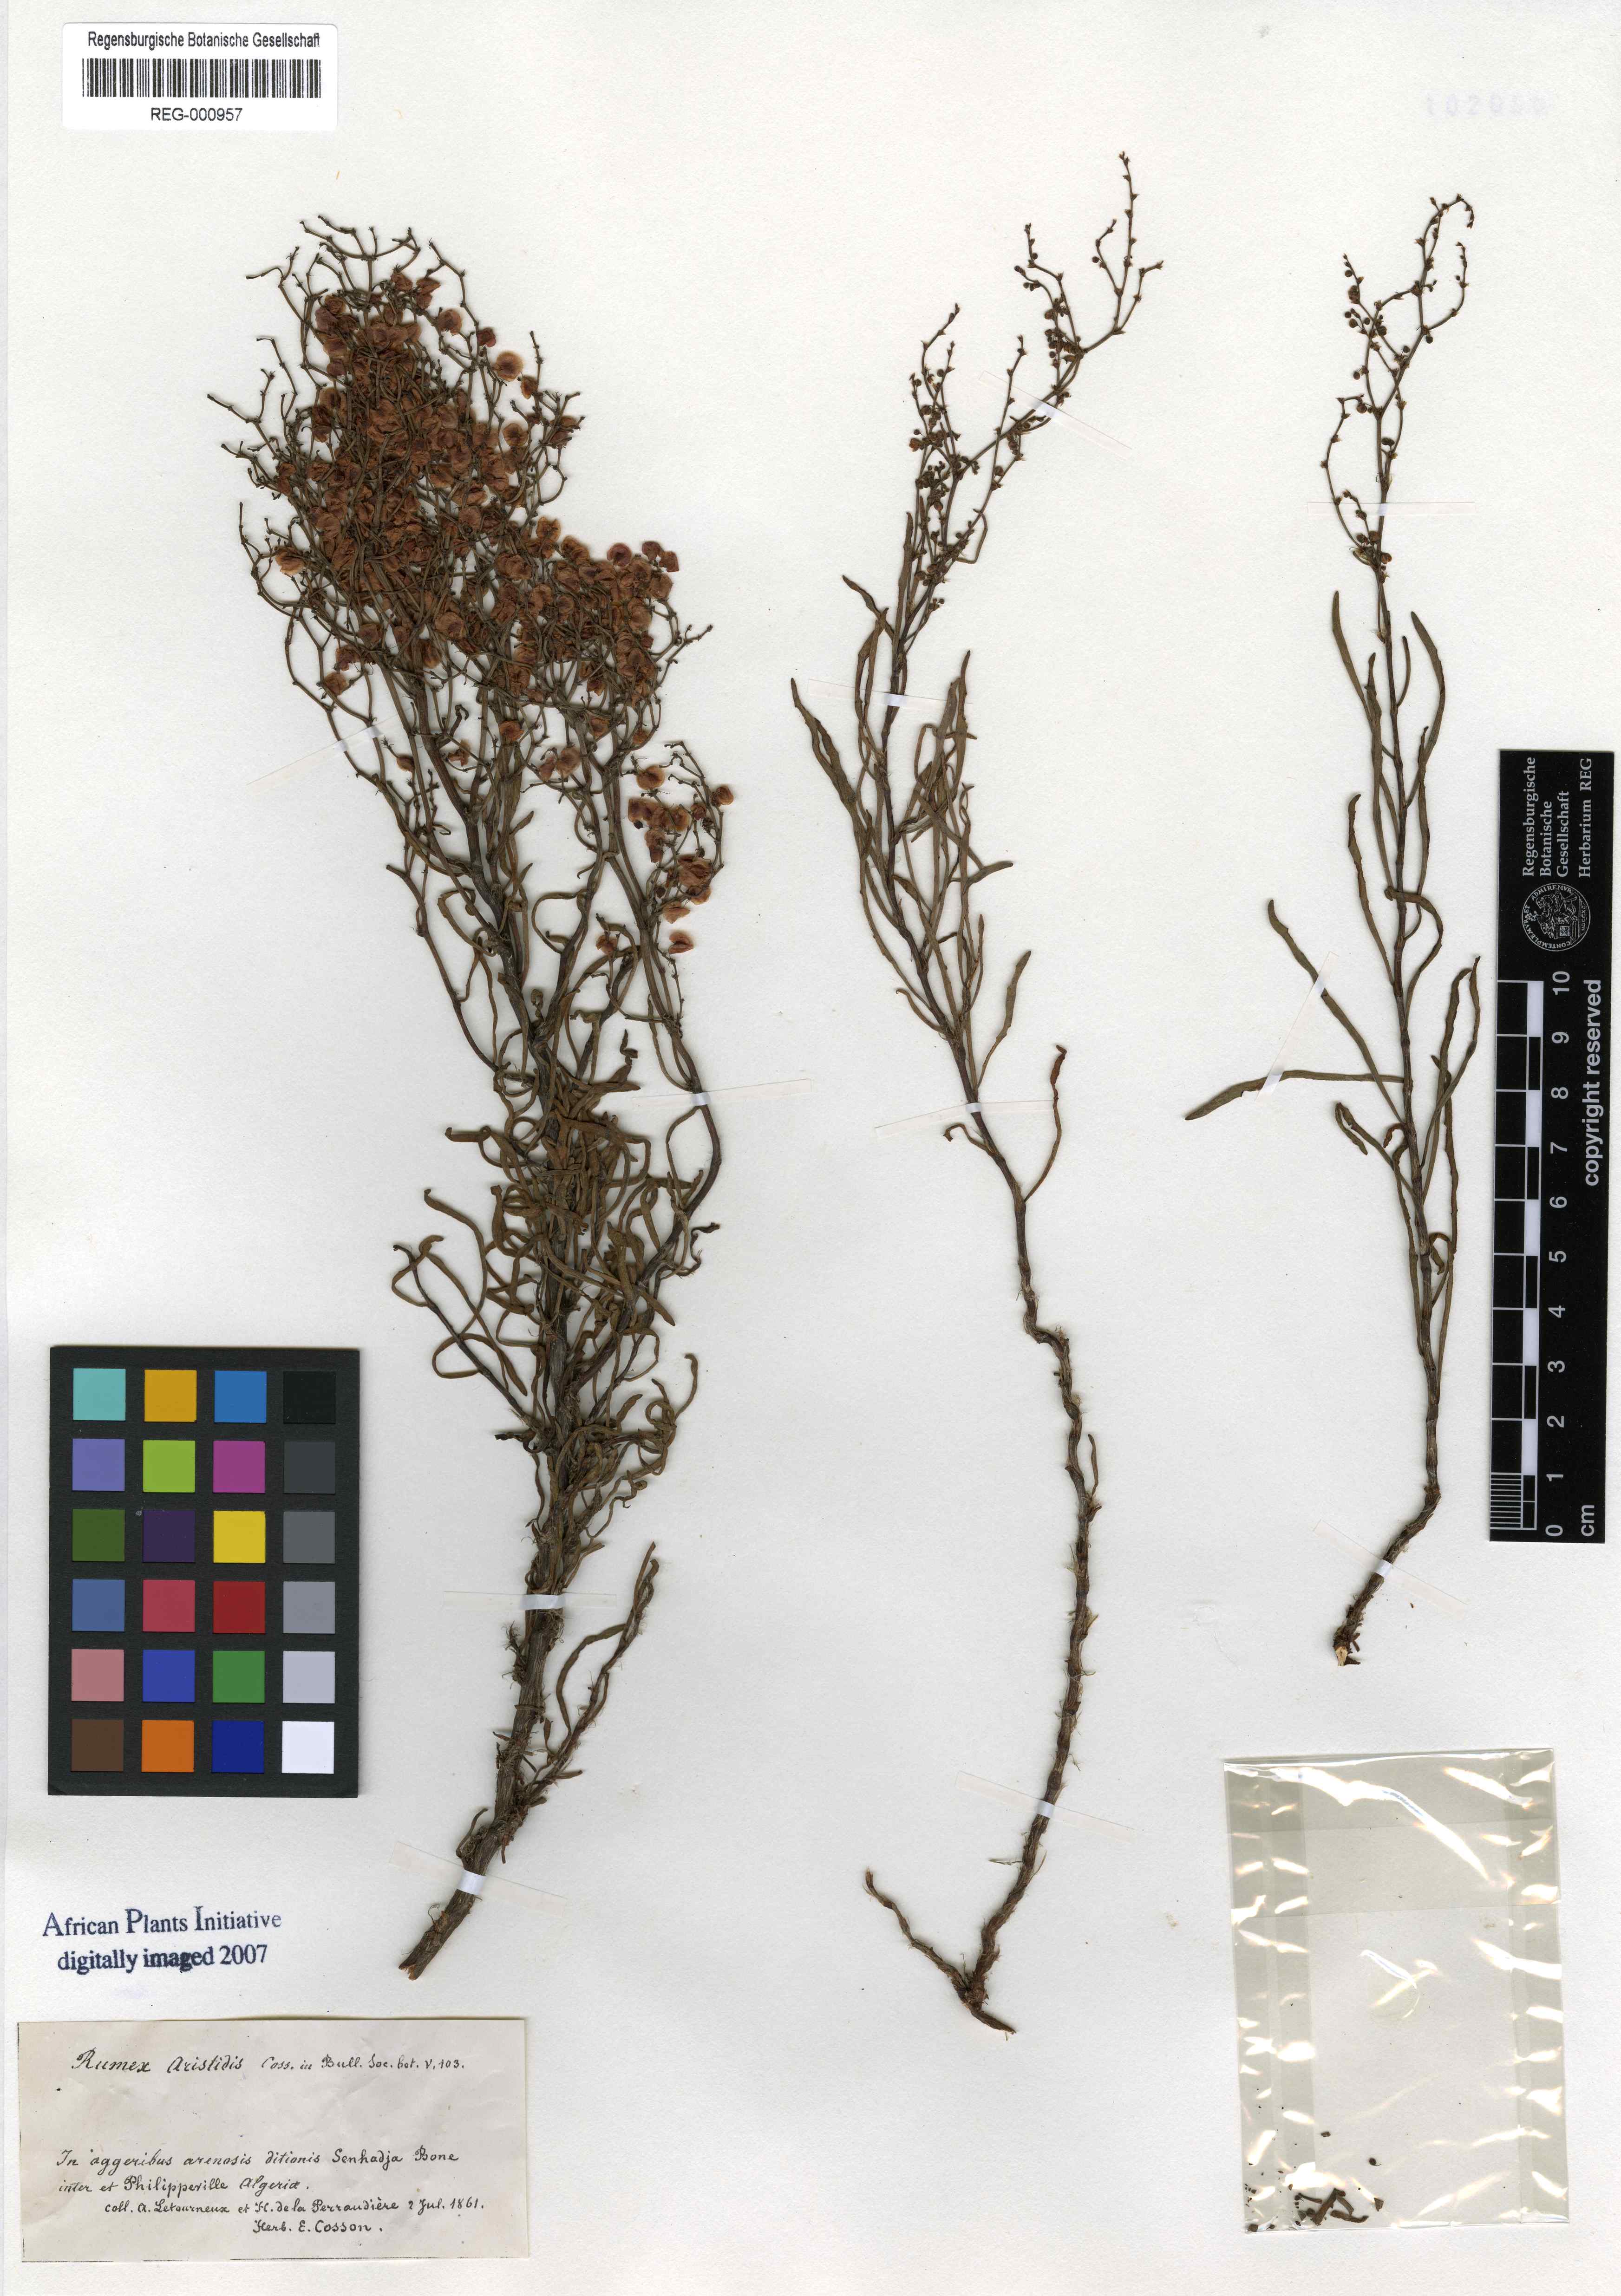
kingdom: Plantae
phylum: Tracheophyta
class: Magnoliopsida
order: Caryophyllales
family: Polygonaceae
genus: Rumex
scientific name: Rumex aristidis
